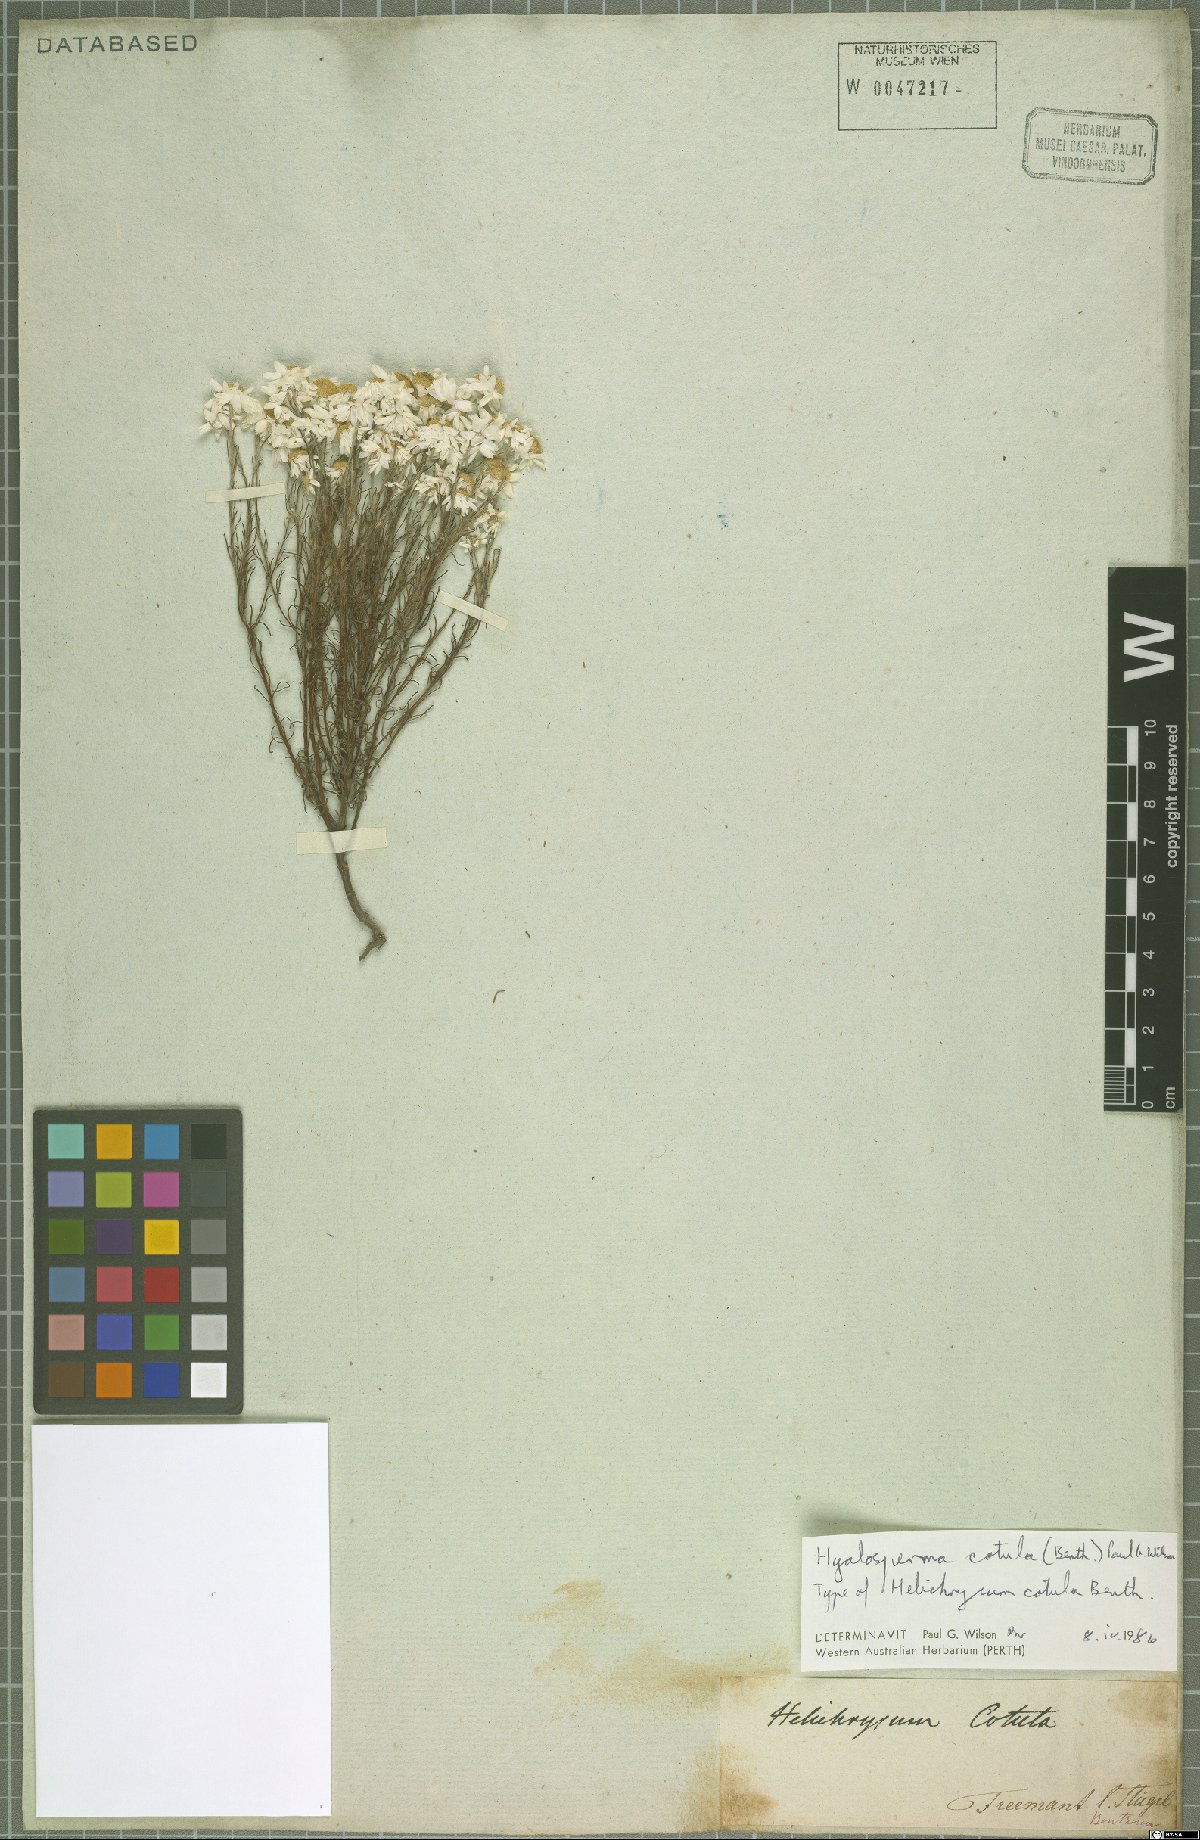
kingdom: Plantae
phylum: Tracheophyta
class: Magnoliopsida
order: Asterales
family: Asteraceae
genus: Hyalosperma
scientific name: Hyalosperma cotula
